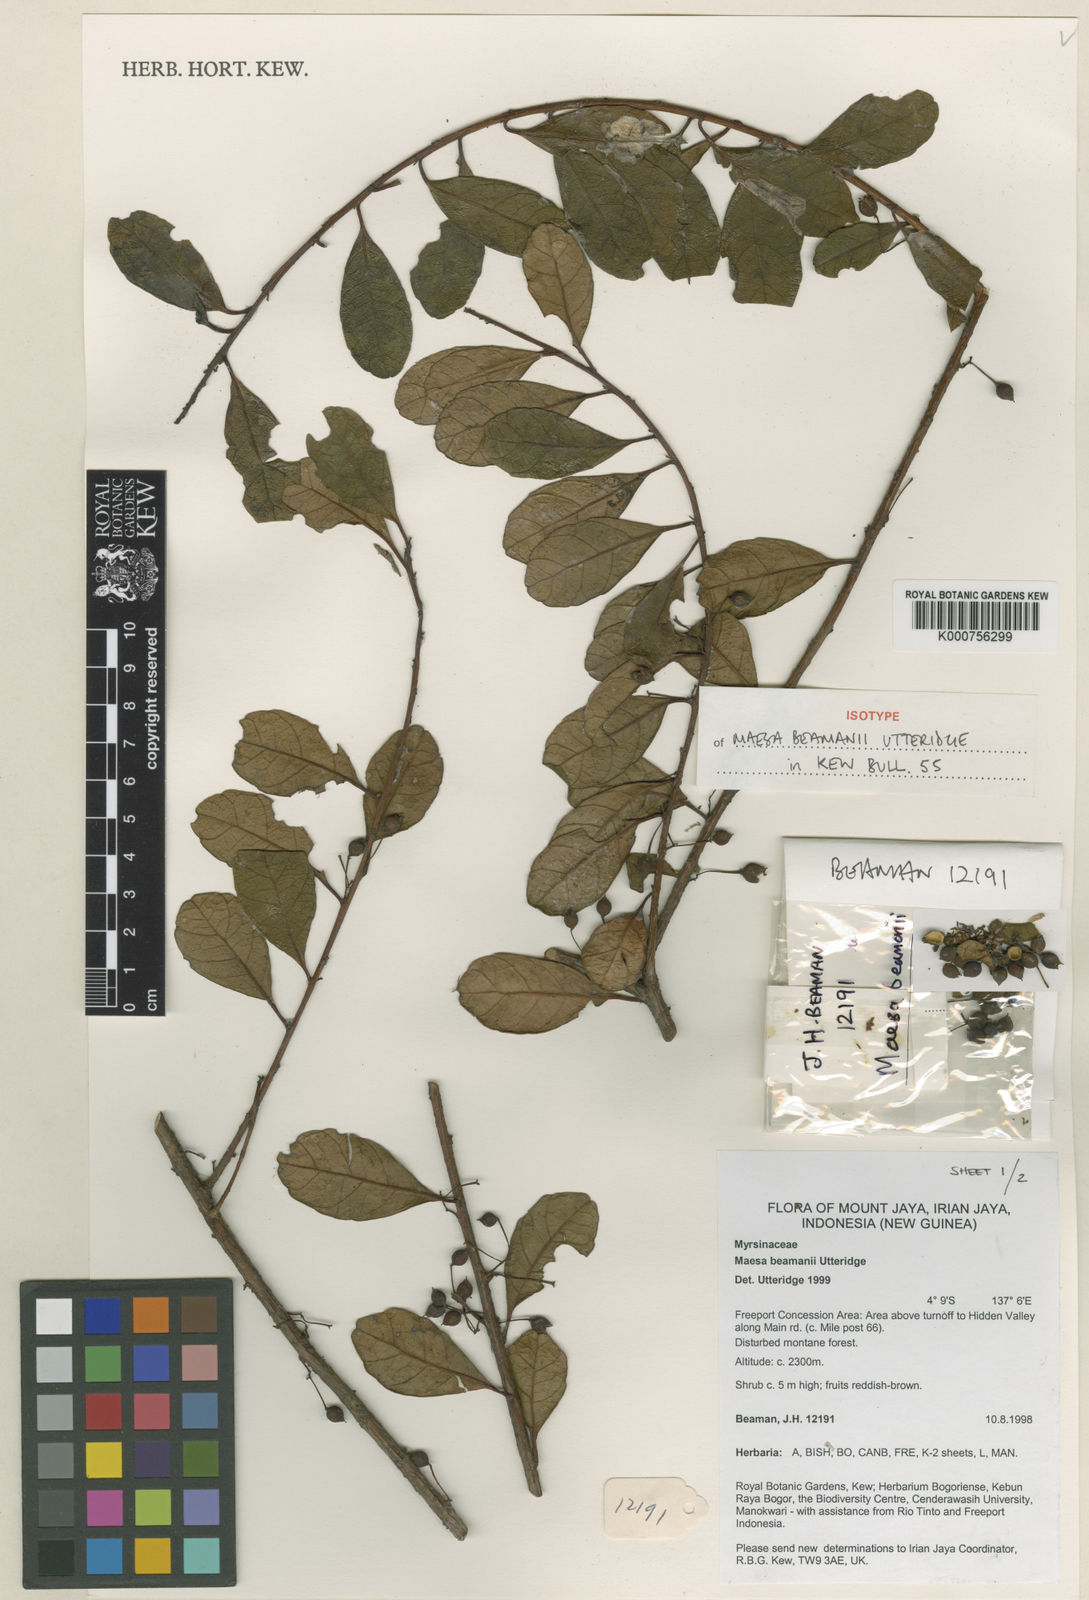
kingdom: Plantae
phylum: Tracheophyta
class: Magnoliopsida
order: Ericales
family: Primulaceae
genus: Maesa
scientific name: Maesa beamanii
